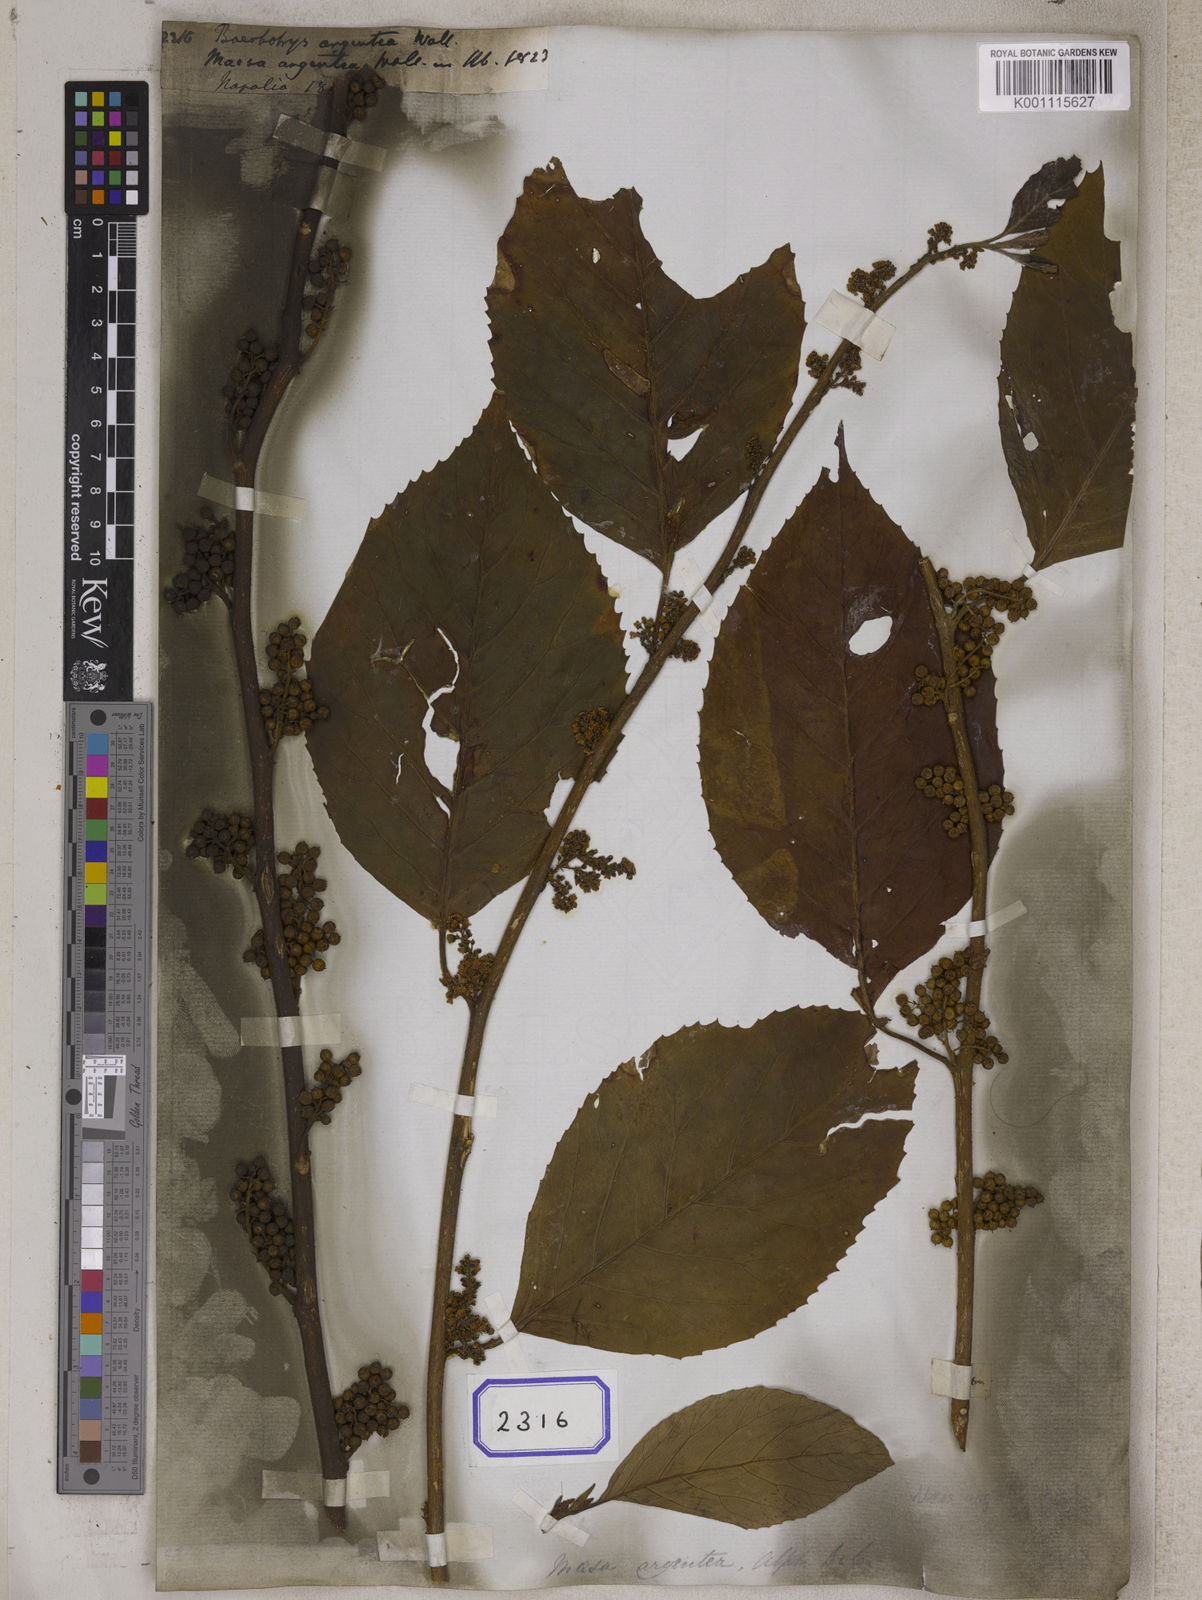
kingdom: Plantae
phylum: Tracheophyta
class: Magnoliopsida
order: Ericales
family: Primulaceae
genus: Maesa
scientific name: Maesa argentea
